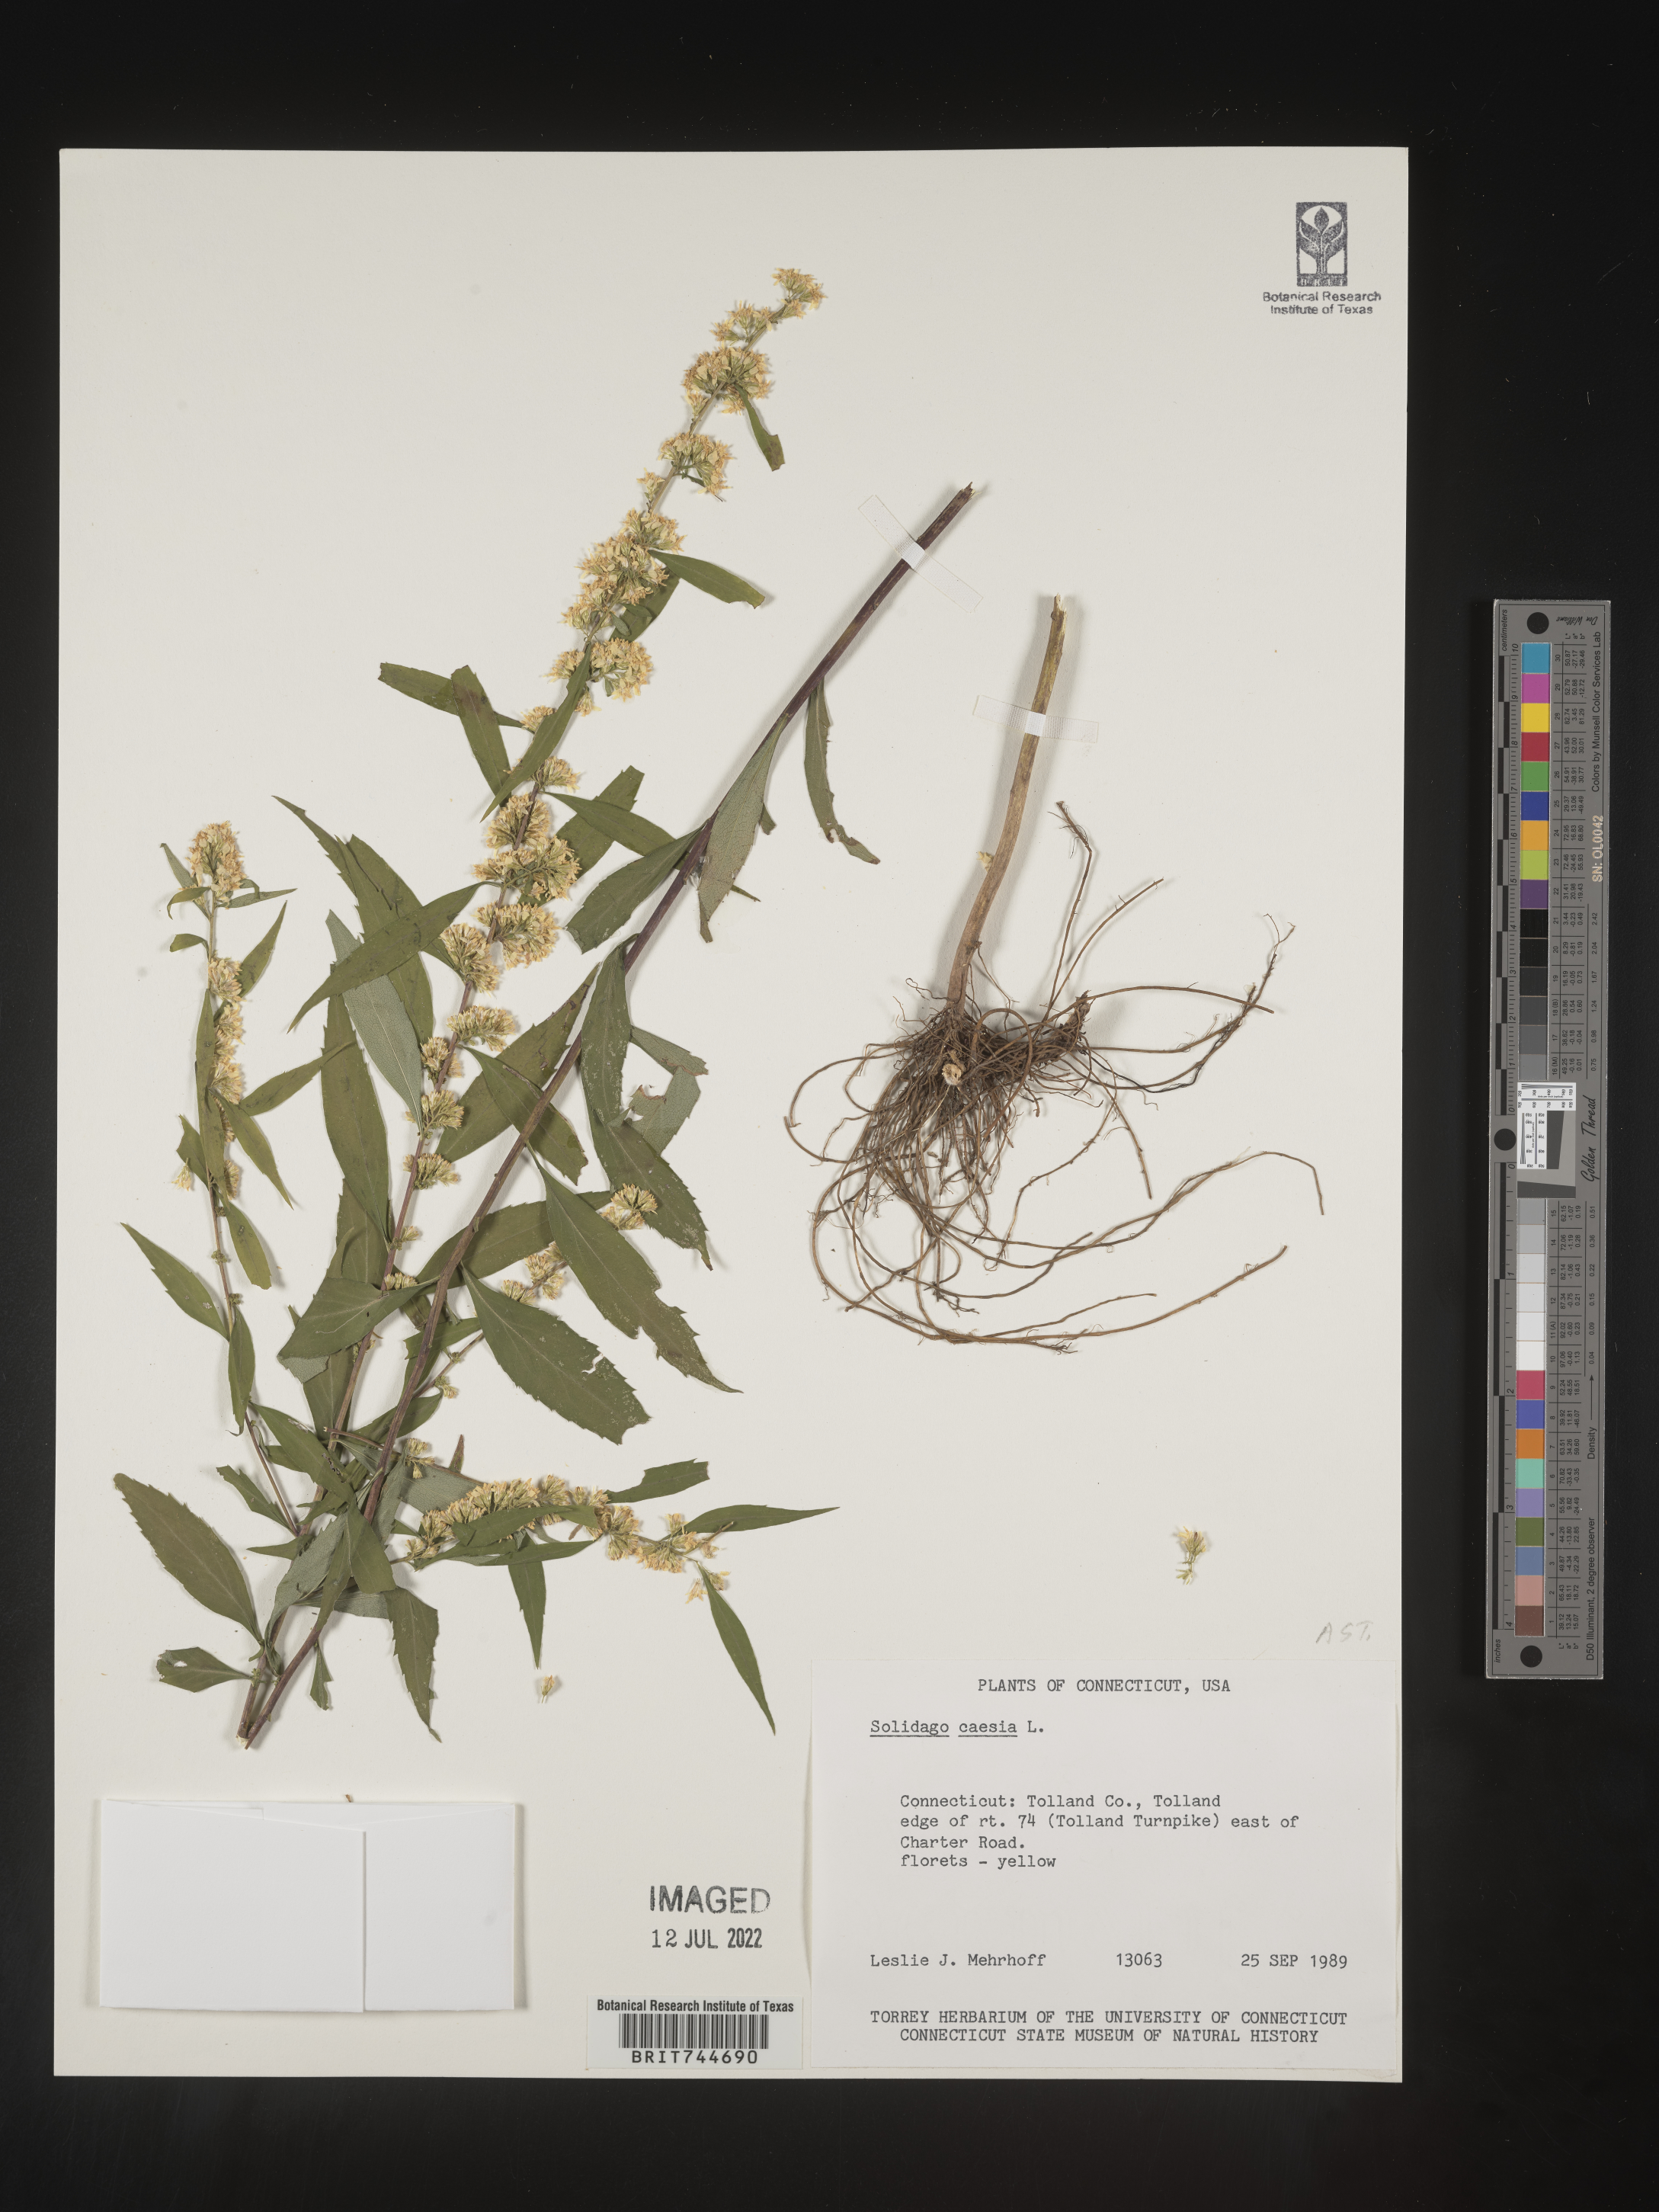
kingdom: Plantae
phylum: Tracheophyta
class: Magnoliopsida
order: Asterales
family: Asteraceae
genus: Solidago
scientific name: Solidago caesia
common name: Woodland goldenrod
